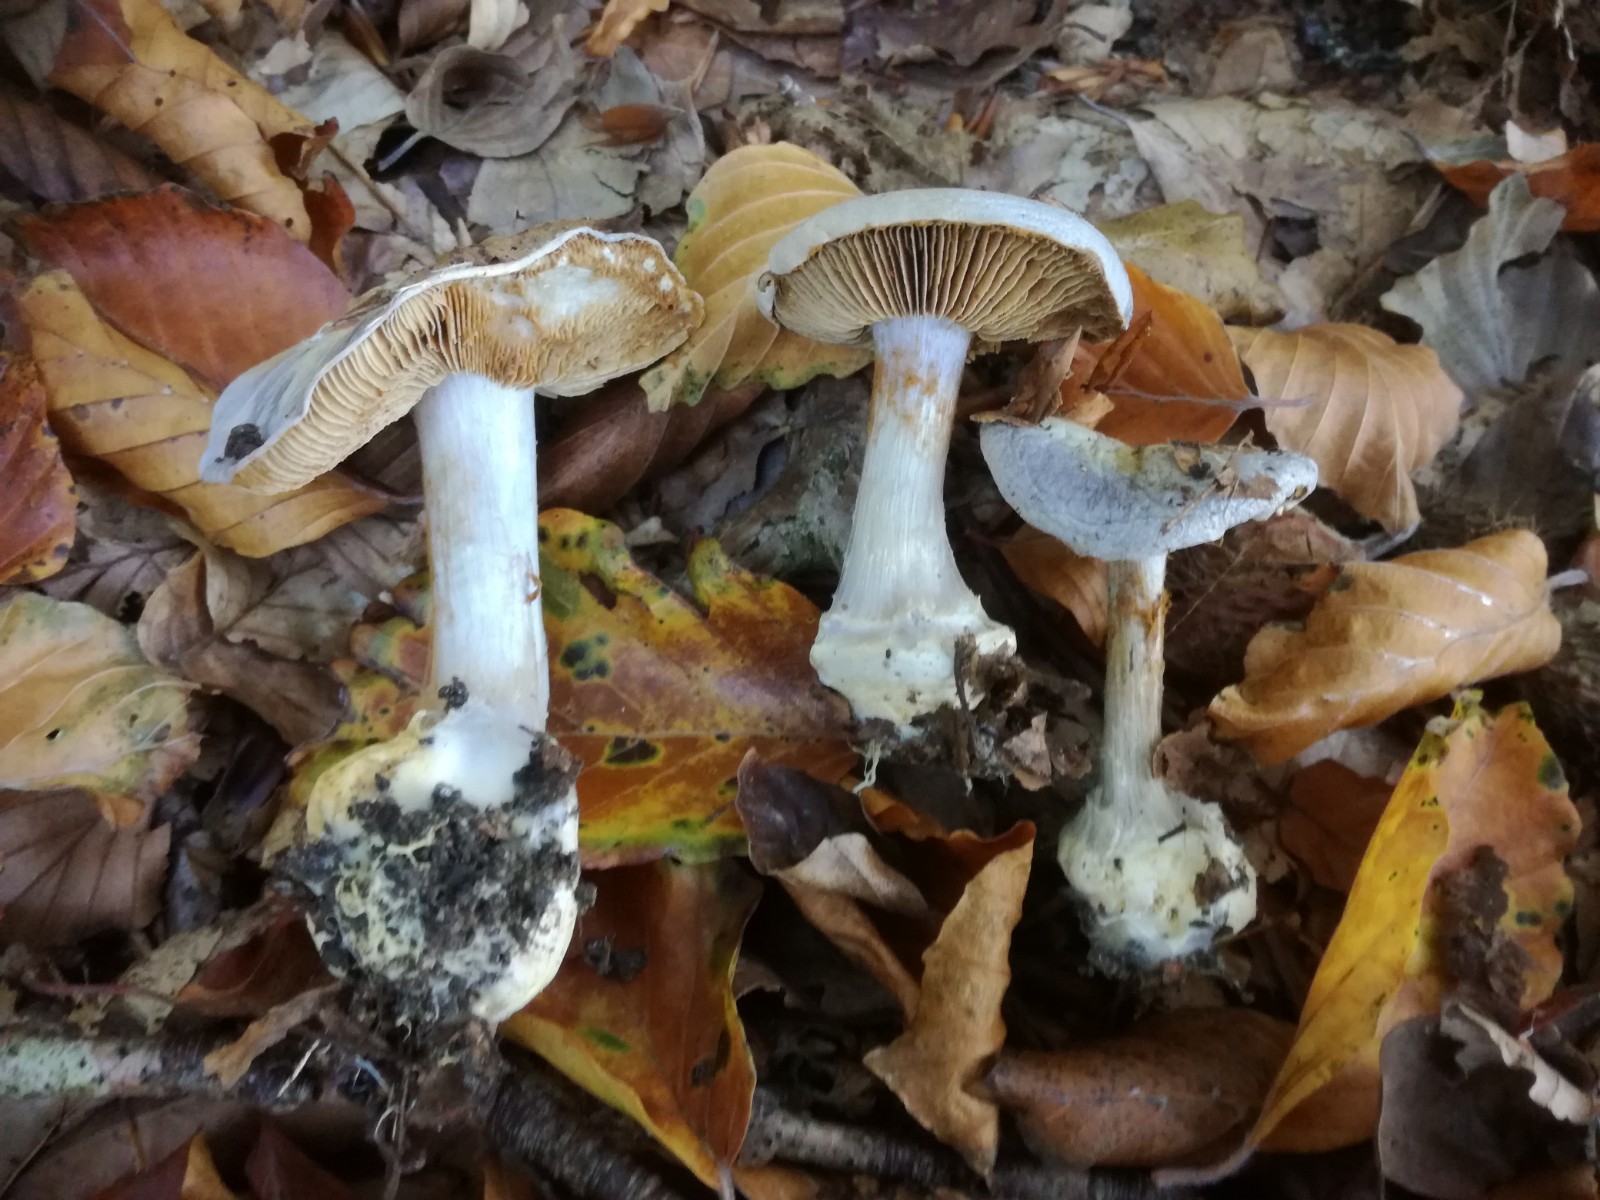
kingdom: Fungi
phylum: Basidiomycota
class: Agaricomycetes
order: Agaricales
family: Cortinariaceae
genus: Cortinarius
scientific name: Cortinarius caerulescens
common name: blåkødet slørhat
